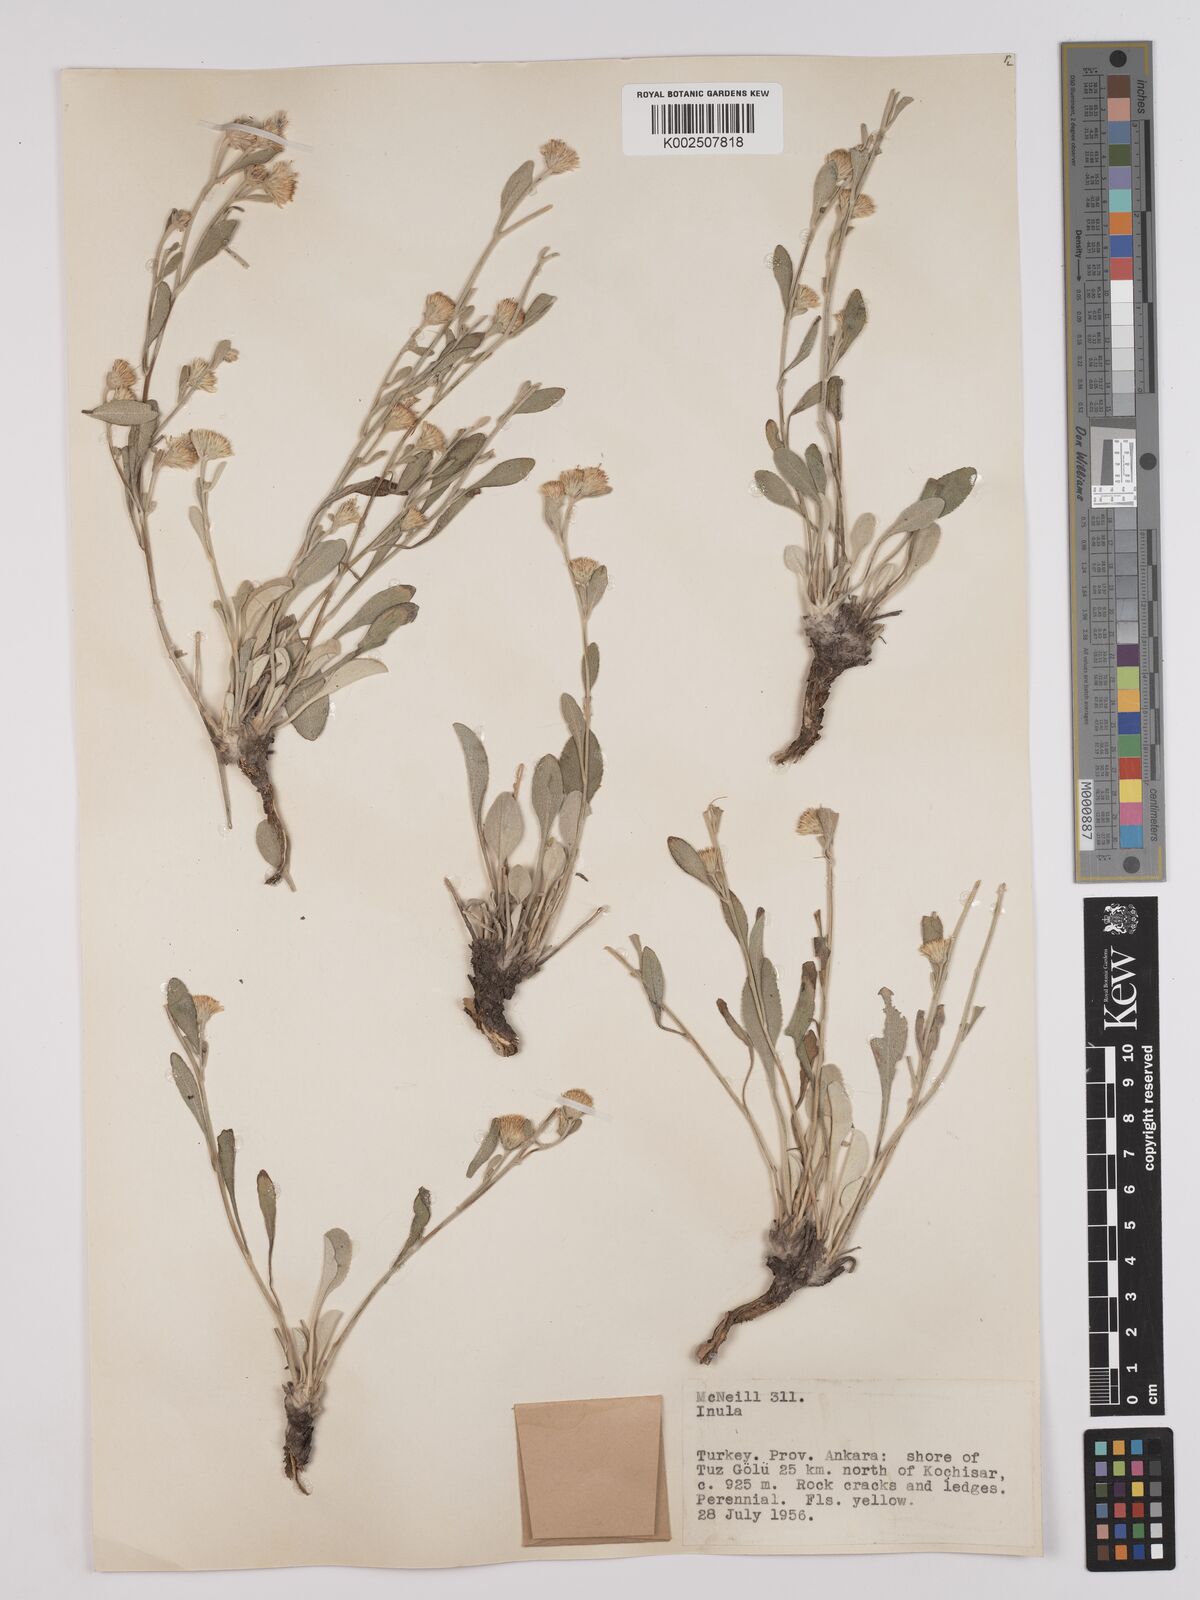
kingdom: Plantae
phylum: Tracheophyta
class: Magnoliopsida
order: Asterales
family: Asteraceae
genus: Inula
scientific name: Inula fragilis
